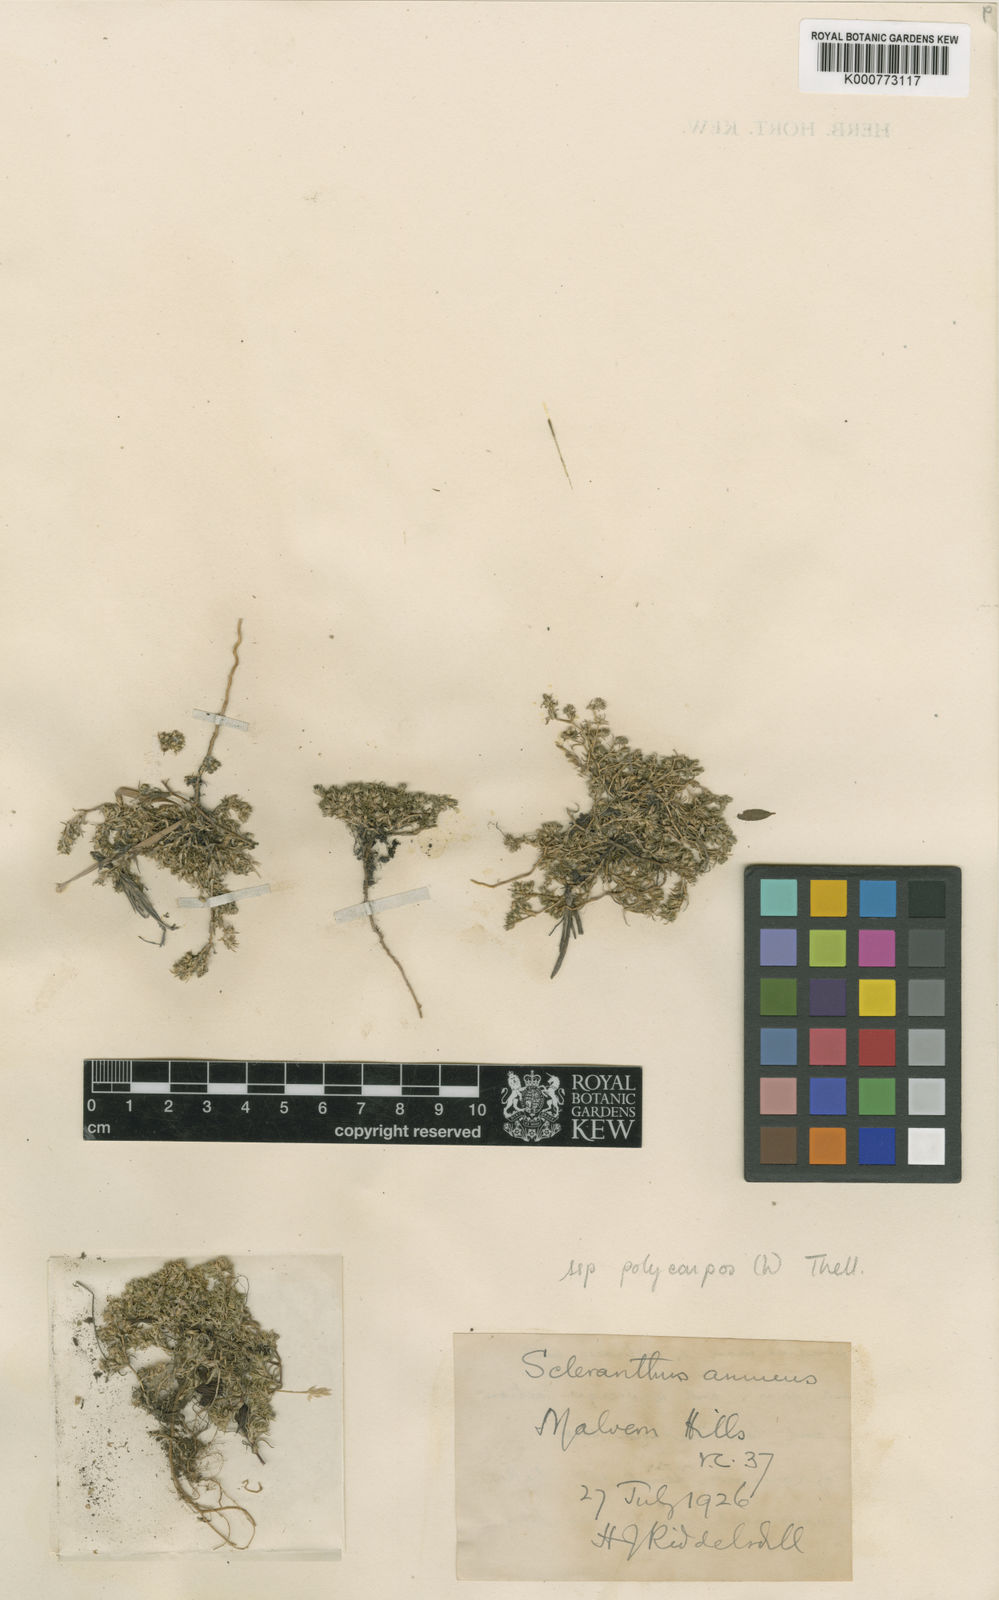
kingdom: Plantae
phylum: Tracheophyta
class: Magnoliopsida
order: Caryophyllales
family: Caryophyllaceae
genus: Scleranthus
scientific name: Scleranthus annuus
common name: Annual knawel
